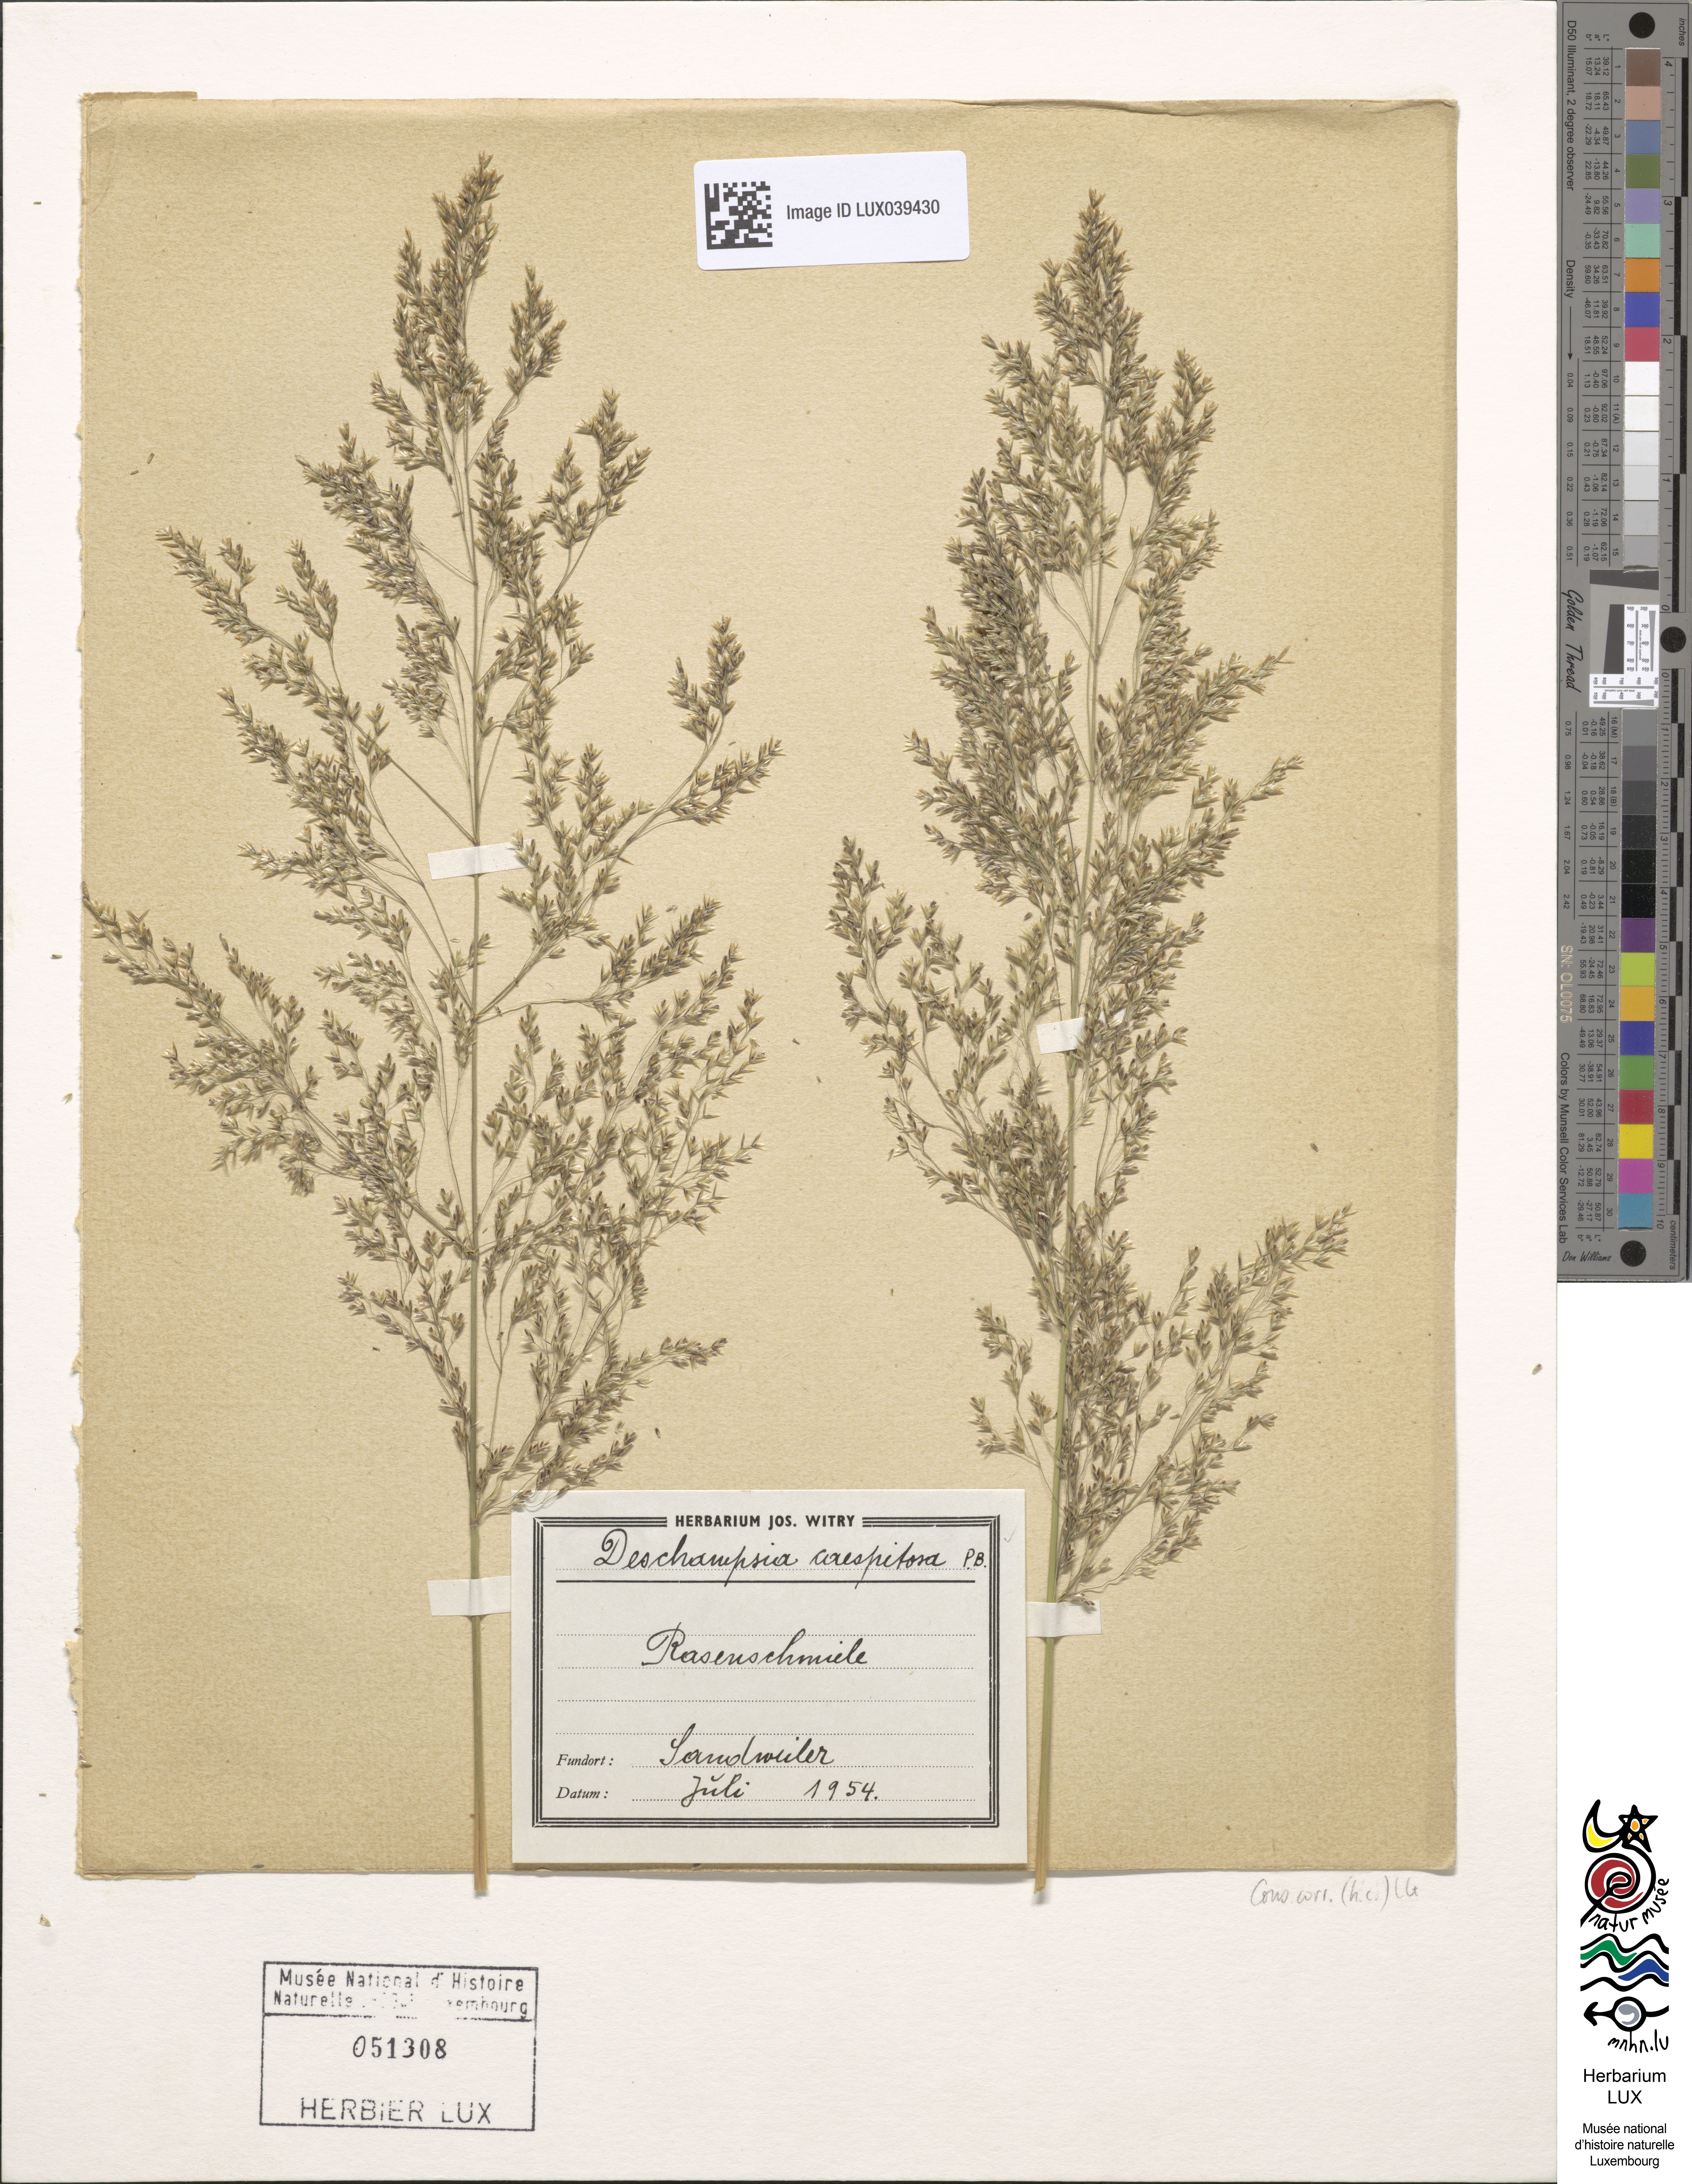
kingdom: Plantae
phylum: Tracheophyta
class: Liliopsida
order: Poales
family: Poaceae
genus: Deschampsia
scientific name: Deschampsia cespitosa
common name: Tufted hair-grass
